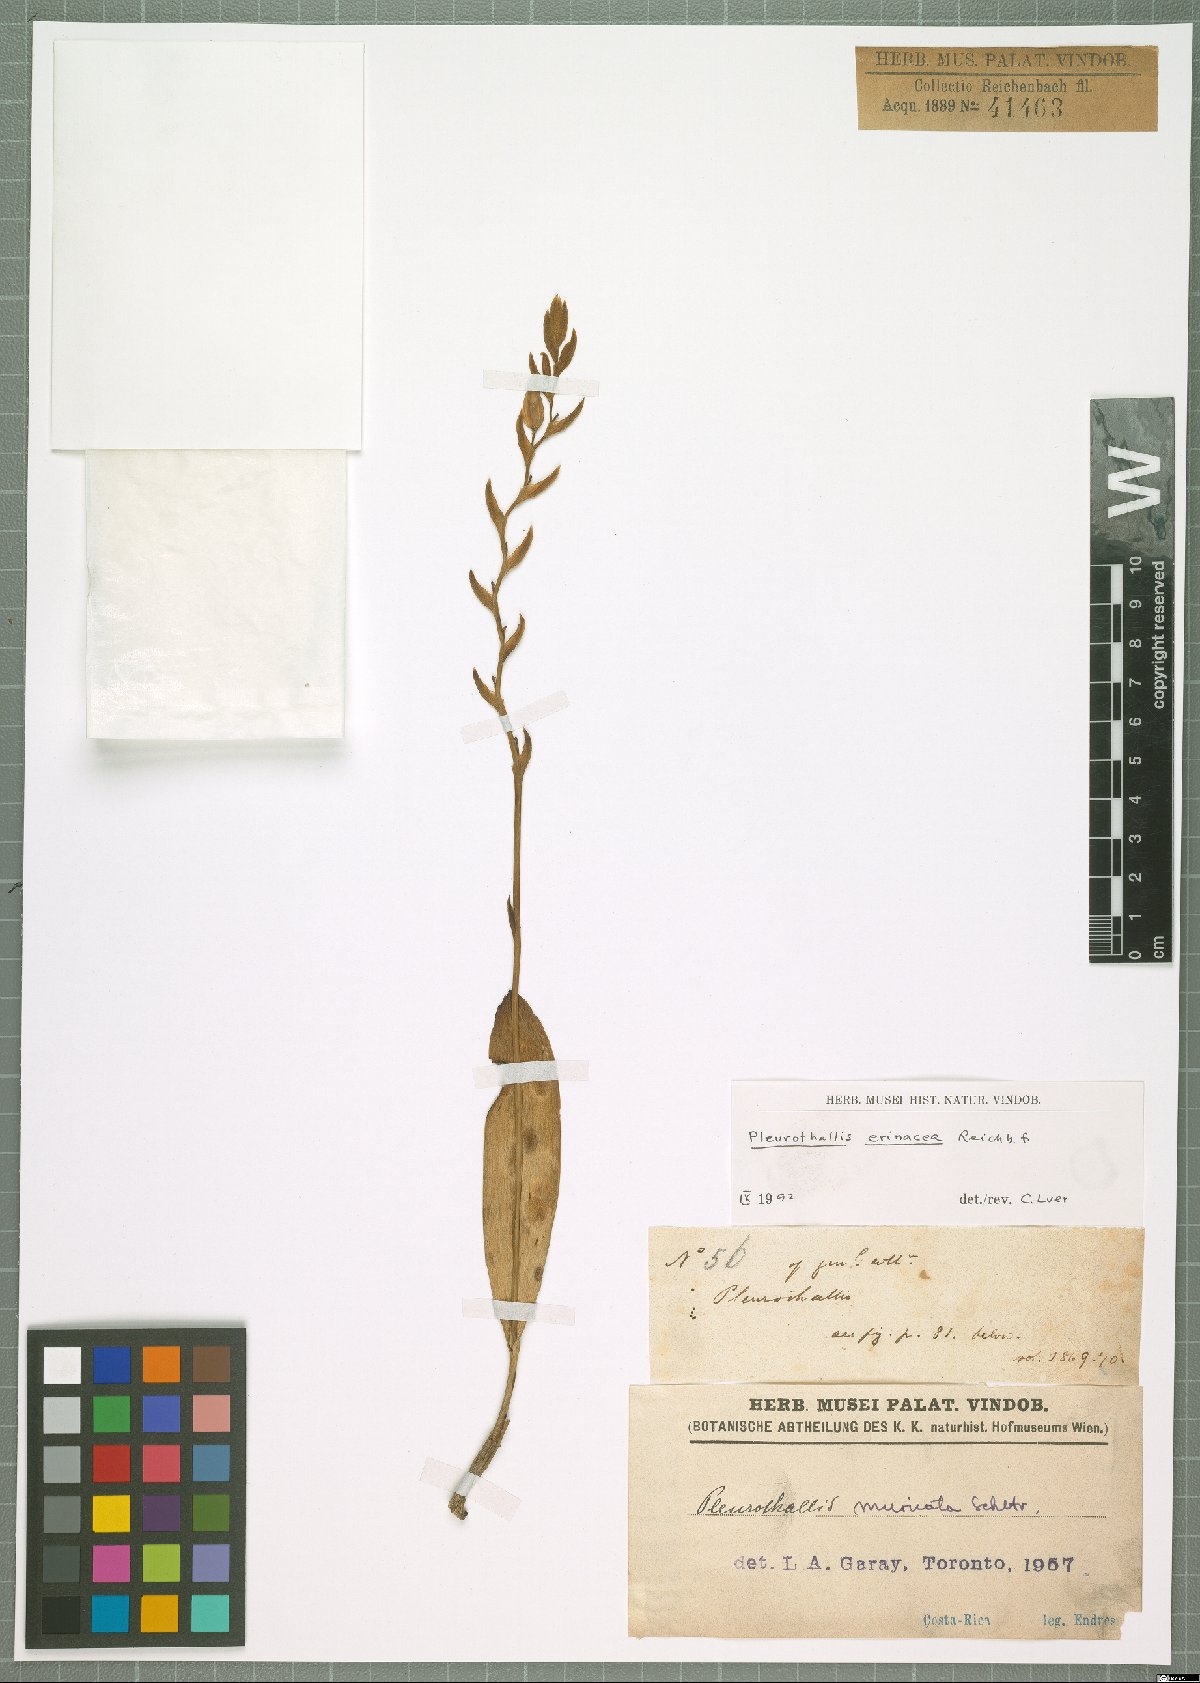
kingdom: Plantae
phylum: Tracheophyta
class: Liliopsida
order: Asparagales
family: Orchidaceae
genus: Acianthera
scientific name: Acianthera erinacea
